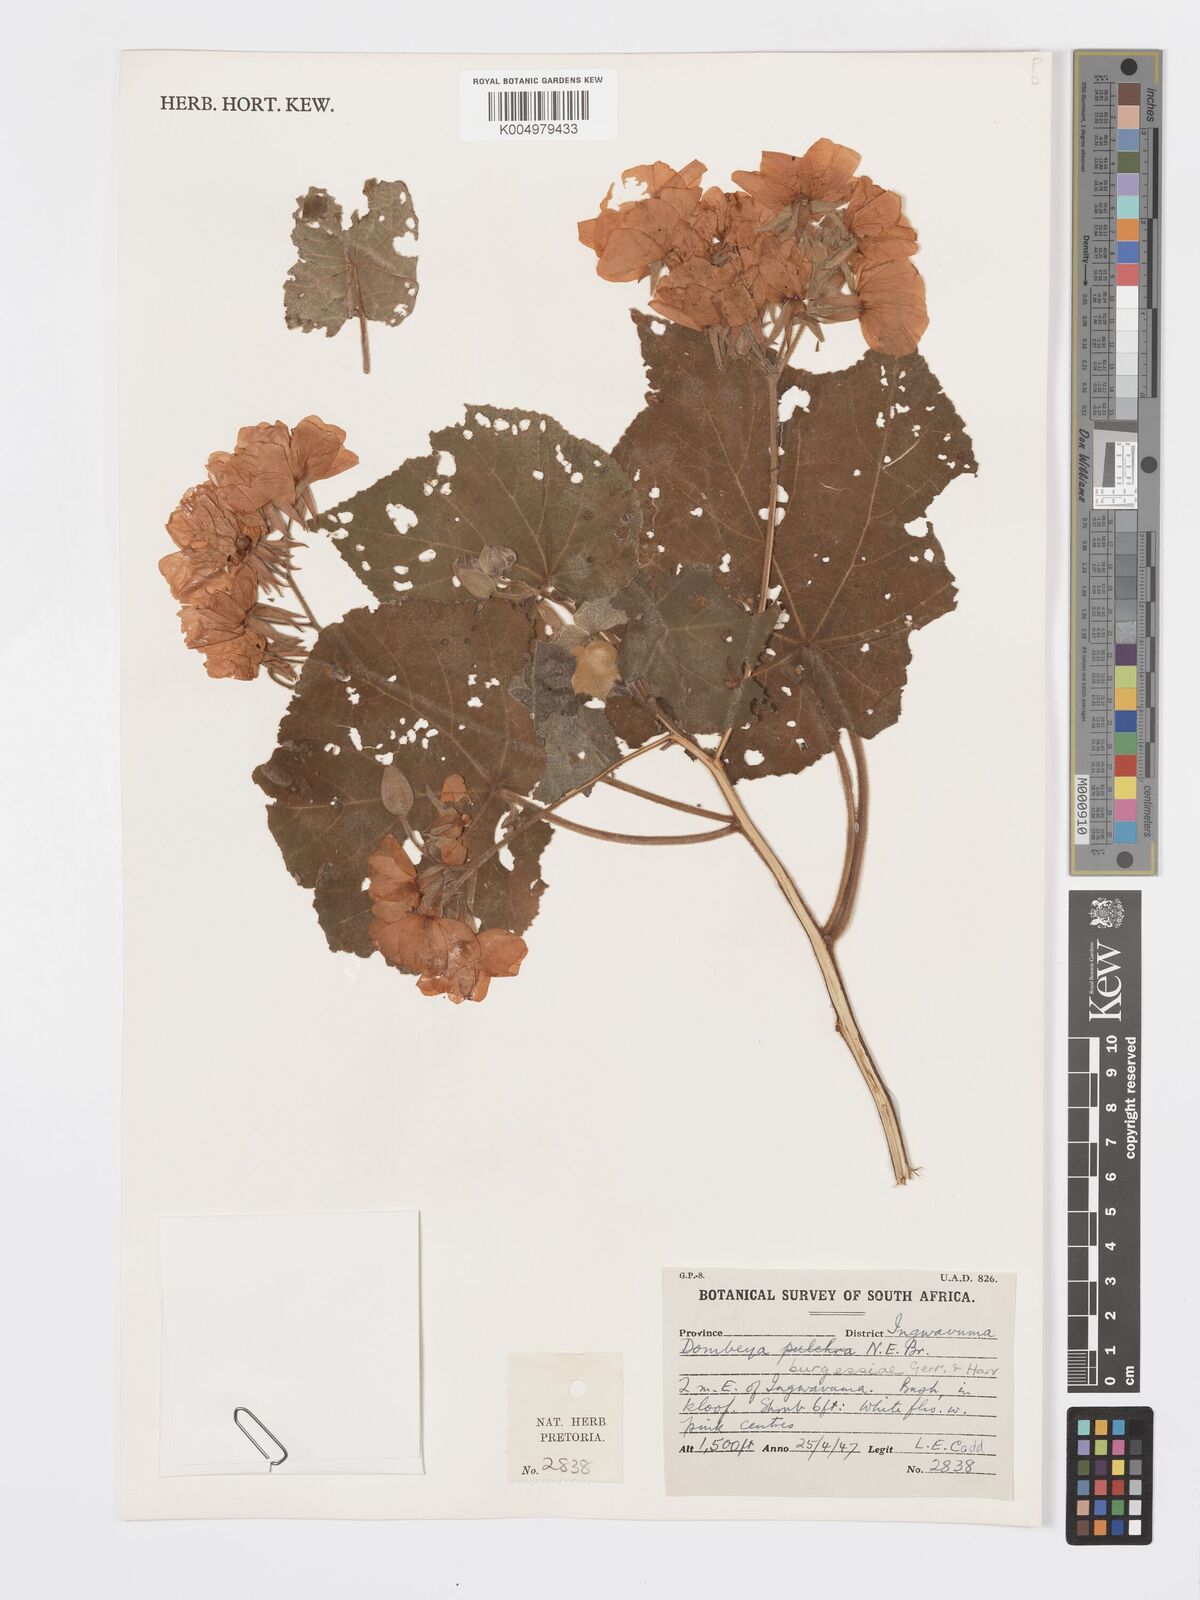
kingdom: Plantae
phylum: Tracheophyta
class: Magnoliopsida
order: Malvales
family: Malvaceae
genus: Dombeya
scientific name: Dombeya burgessiae
